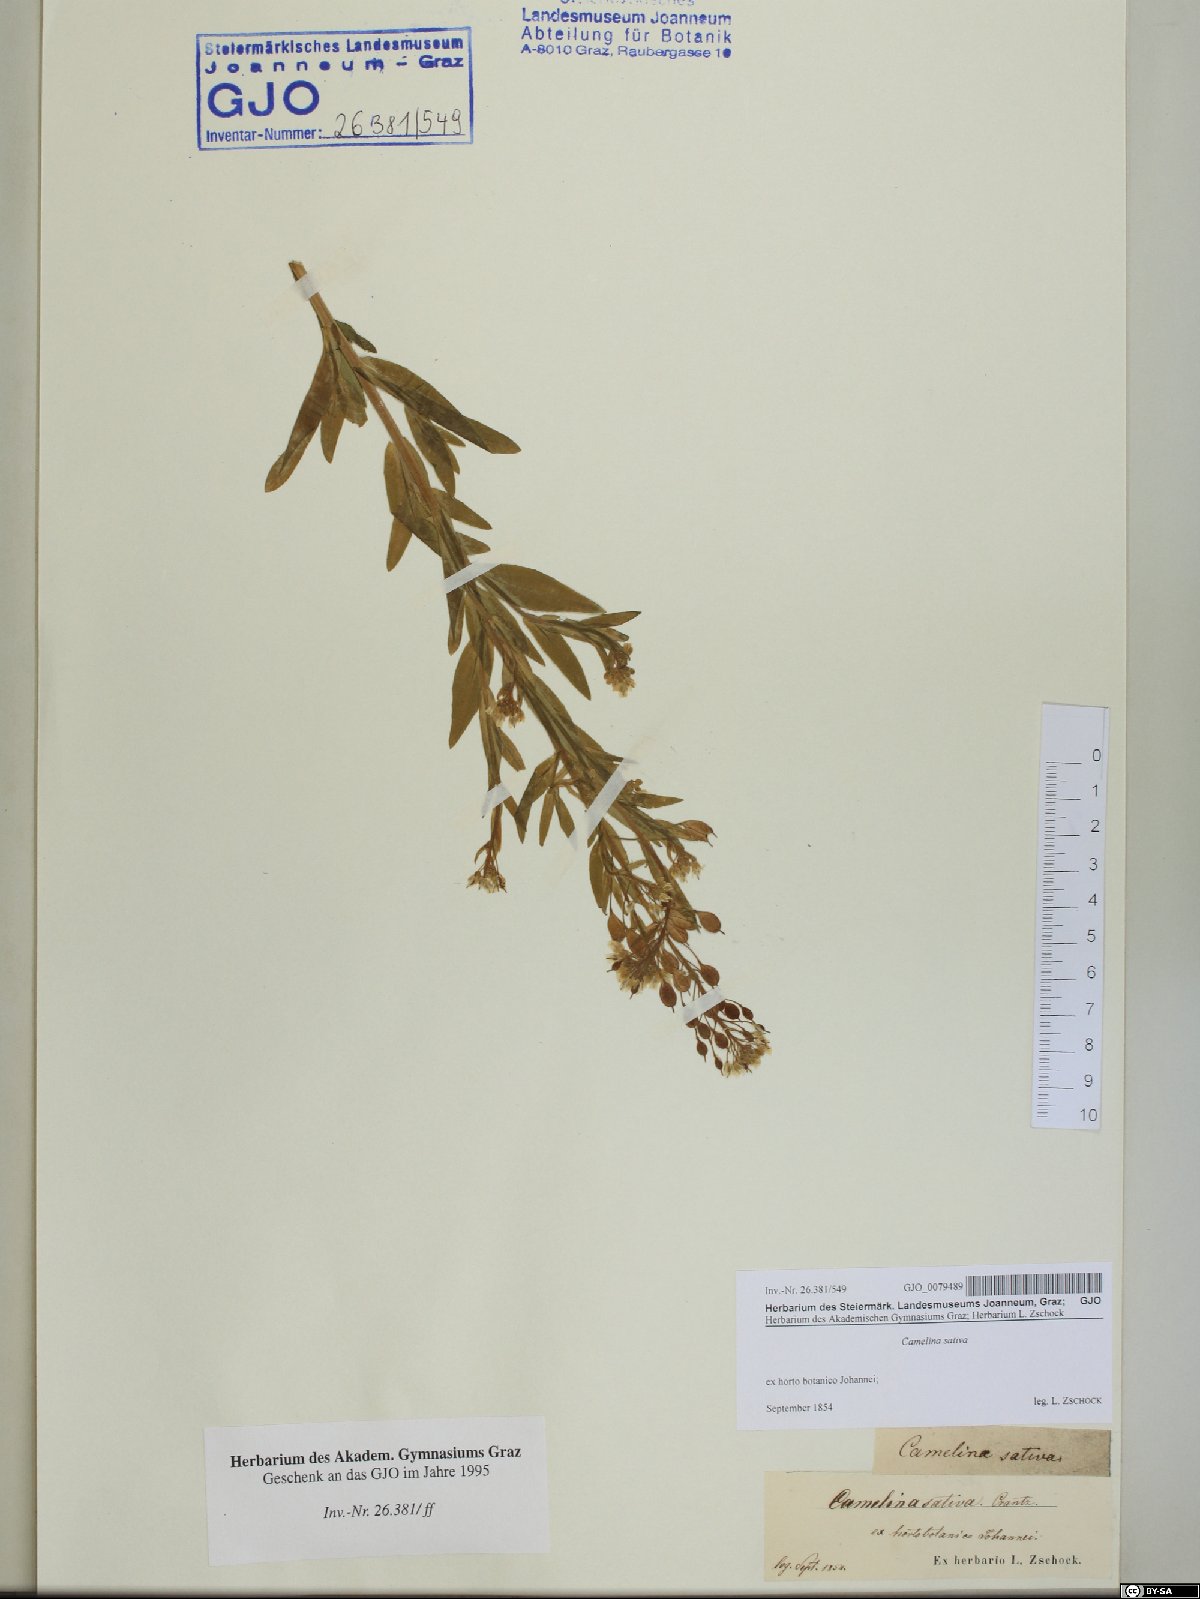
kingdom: Plantae
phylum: Tracheophyta
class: Magnoliopsida
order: Brassicales
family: Brassicaceae
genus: Camelina
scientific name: Camelina sativa
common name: Gold-of-pleasure
